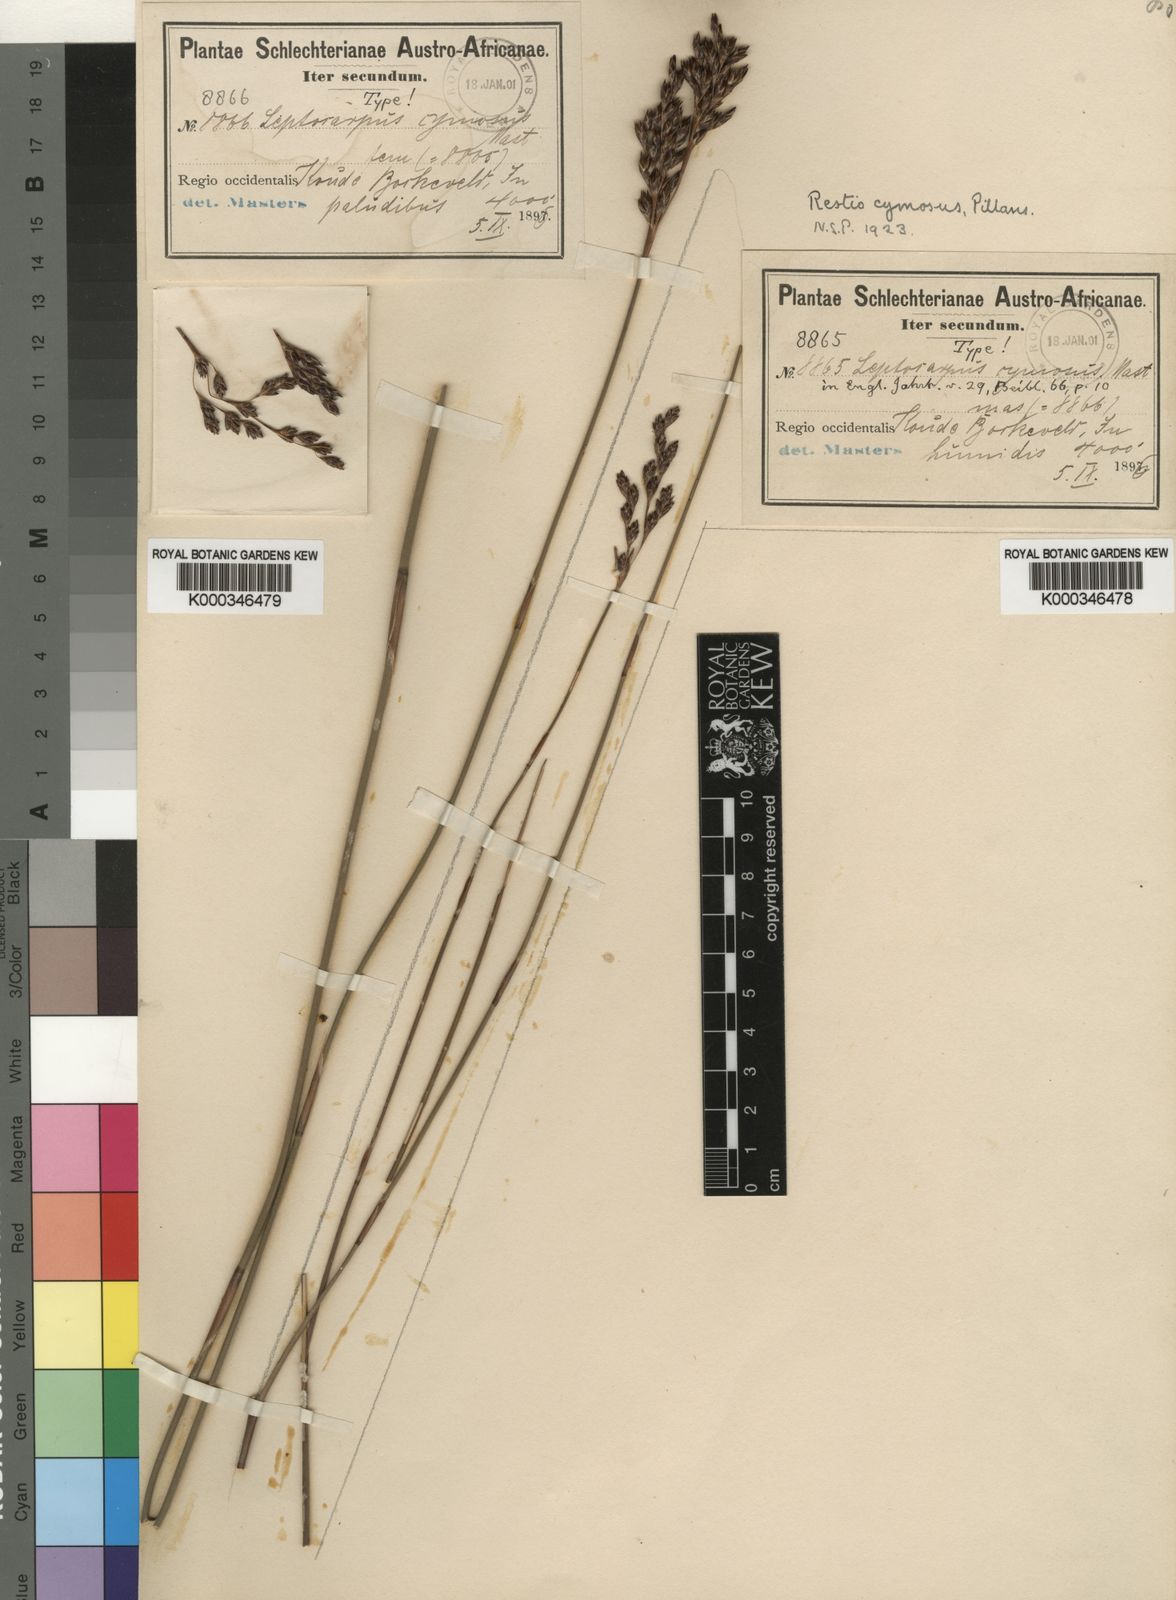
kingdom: Plantae
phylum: Tracheophyta
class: Liliopsida
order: Poales
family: Restionaceae
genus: Restio
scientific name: Restio cymosus
